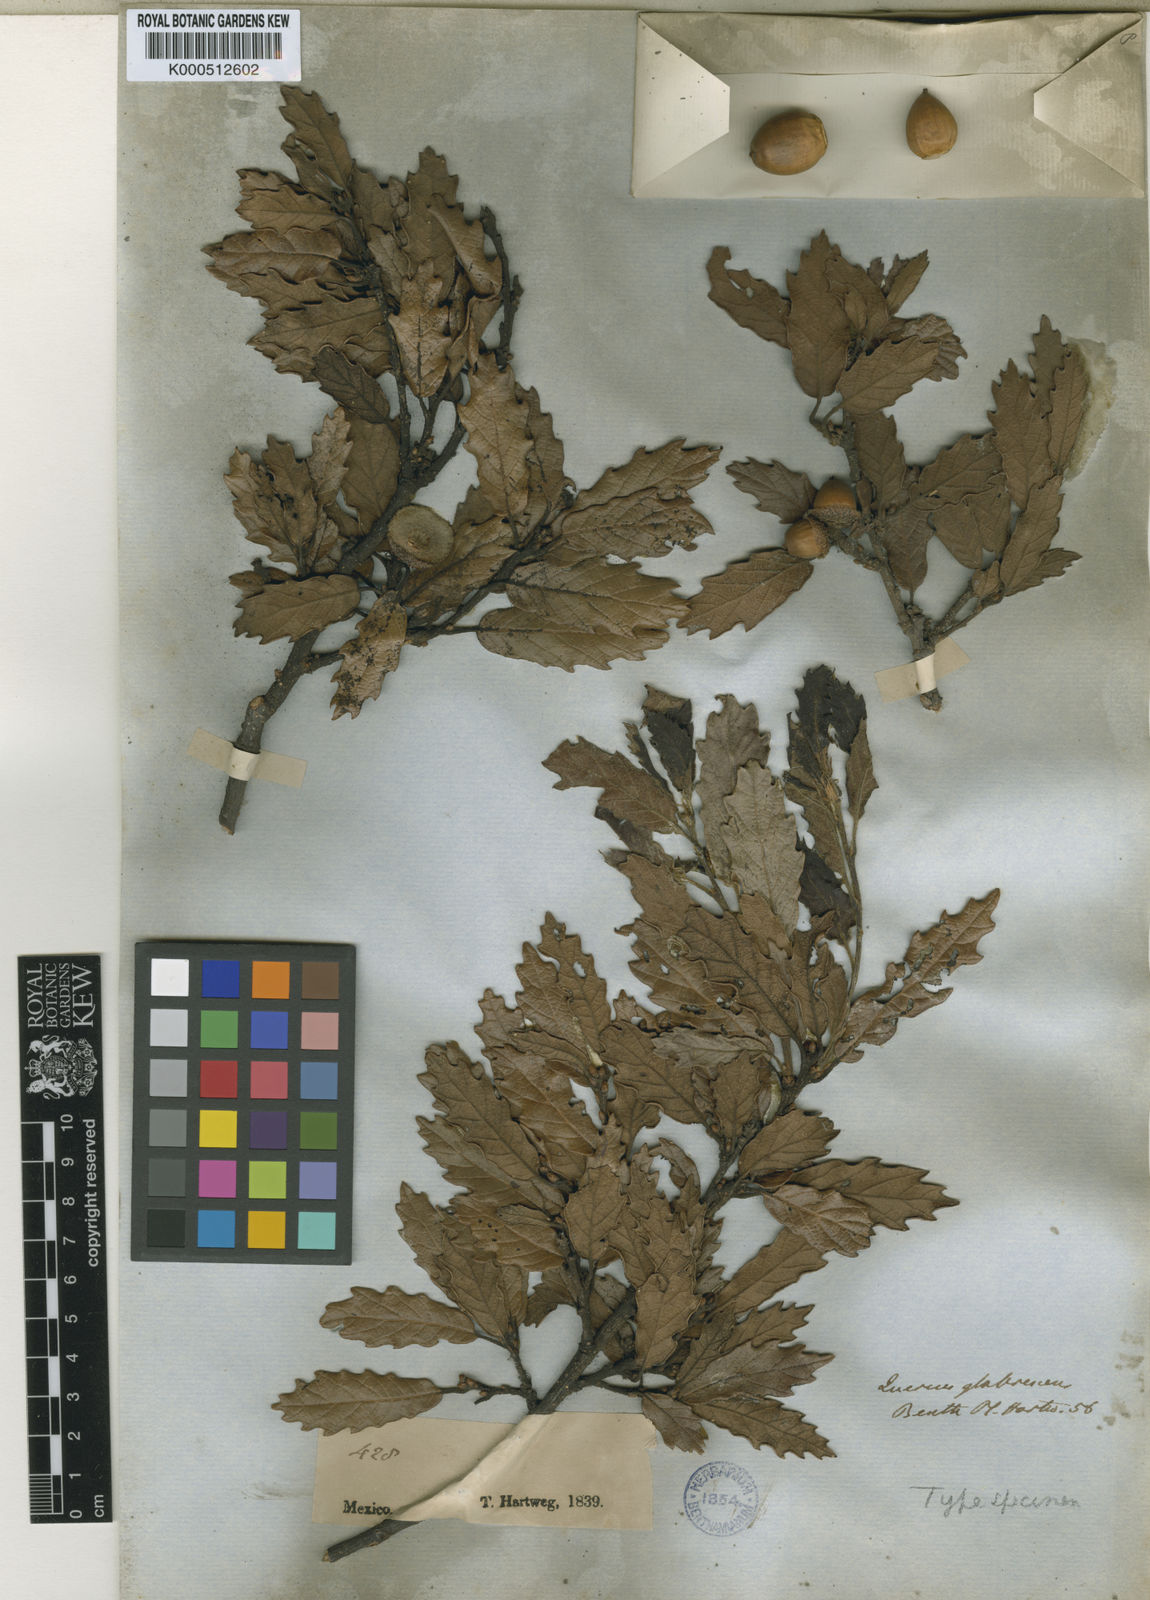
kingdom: Plantae
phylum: Tracheophyta
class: Magnoliopsida
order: Fagales
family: Fagaceae
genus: Quercus
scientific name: Quercus glabrescens
